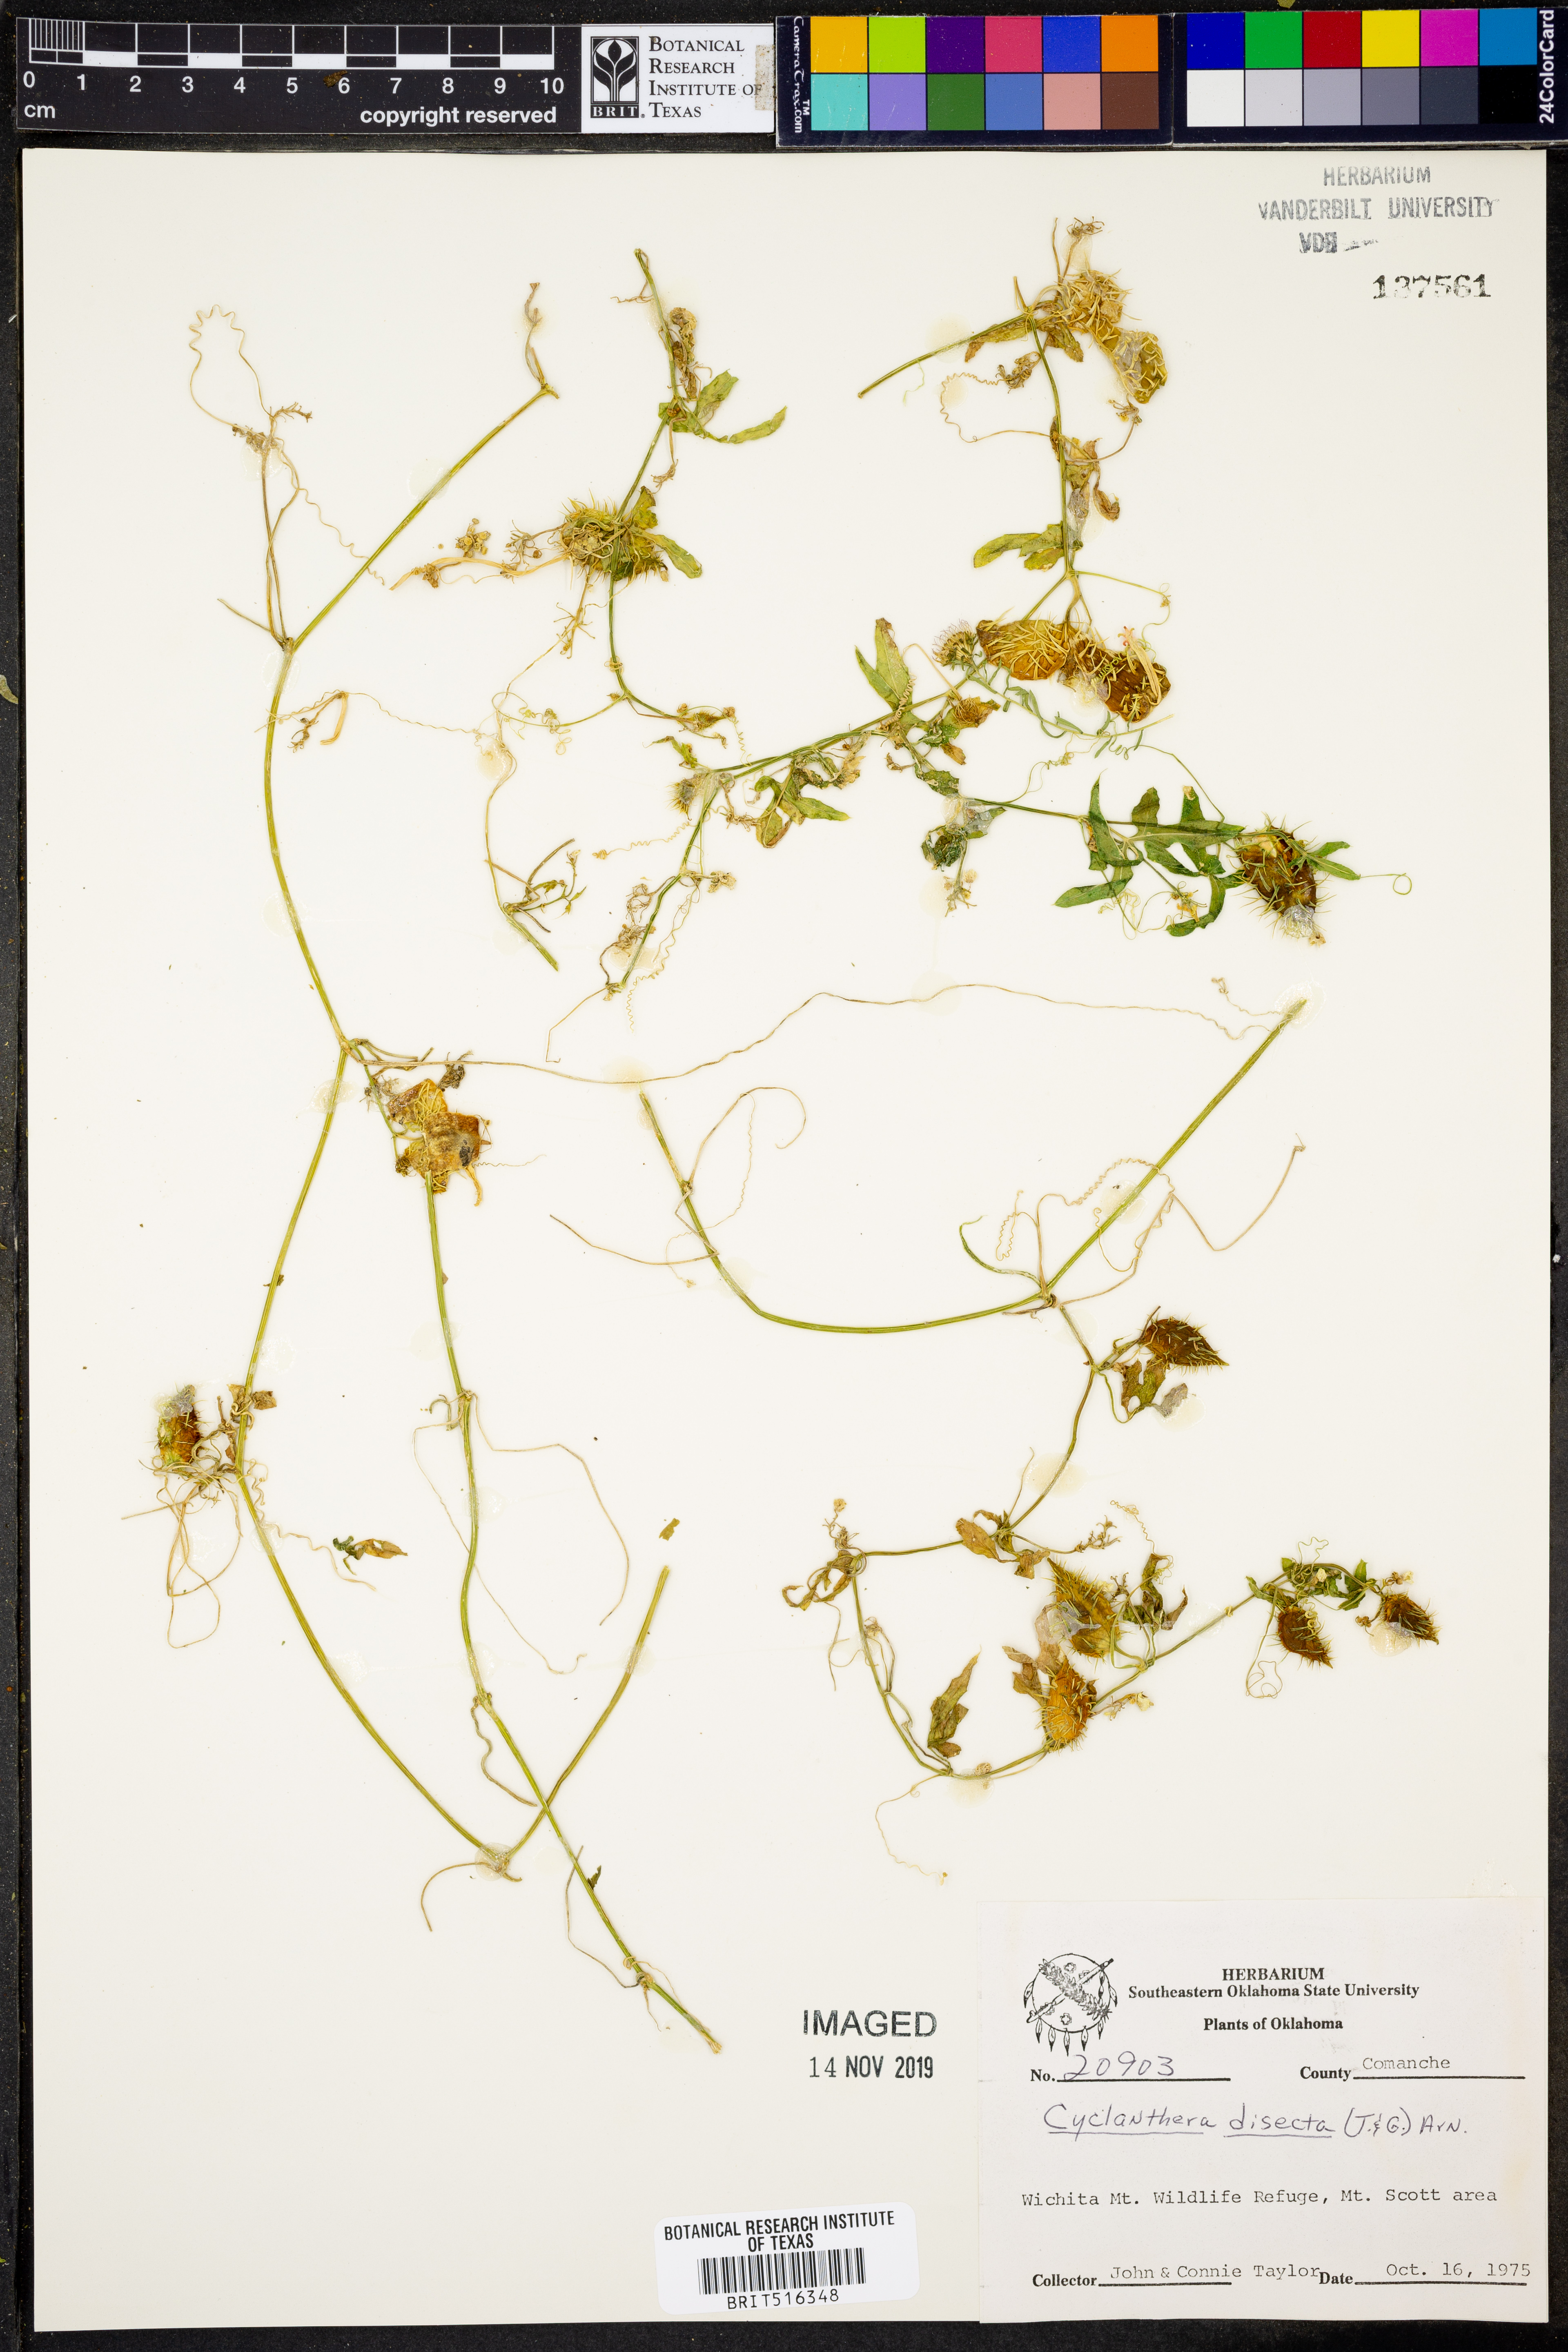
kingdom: Plantae
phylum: Tracheophyta
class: Magnoliopsida
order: Cucurbitales
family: Cucurbitaceae
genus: Cyclanthera
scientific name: Cyclanthera dissecta
